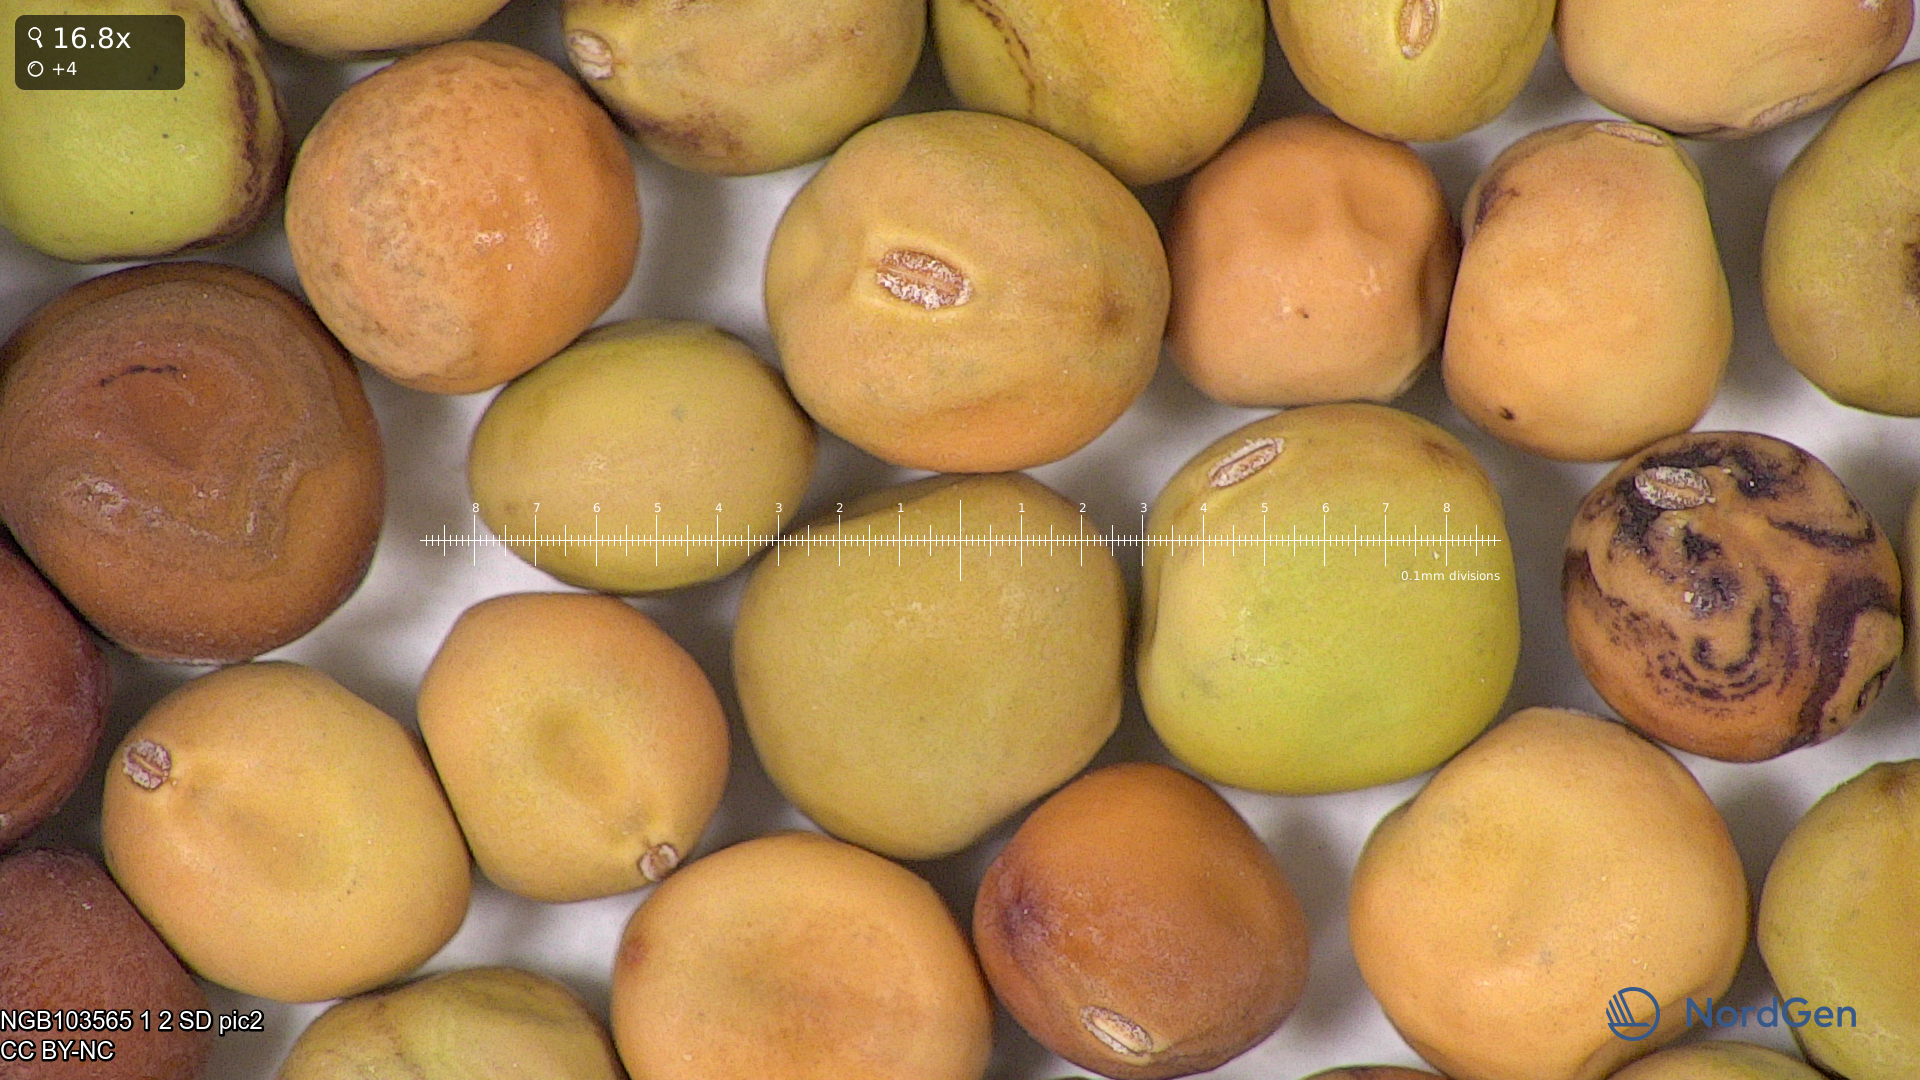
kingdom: Plantae
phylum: Tracheophyta
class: Magnoliopsida
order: Fabales
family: Fabaceae
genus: Lathyrus
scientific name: Lathyrus oleraceus
